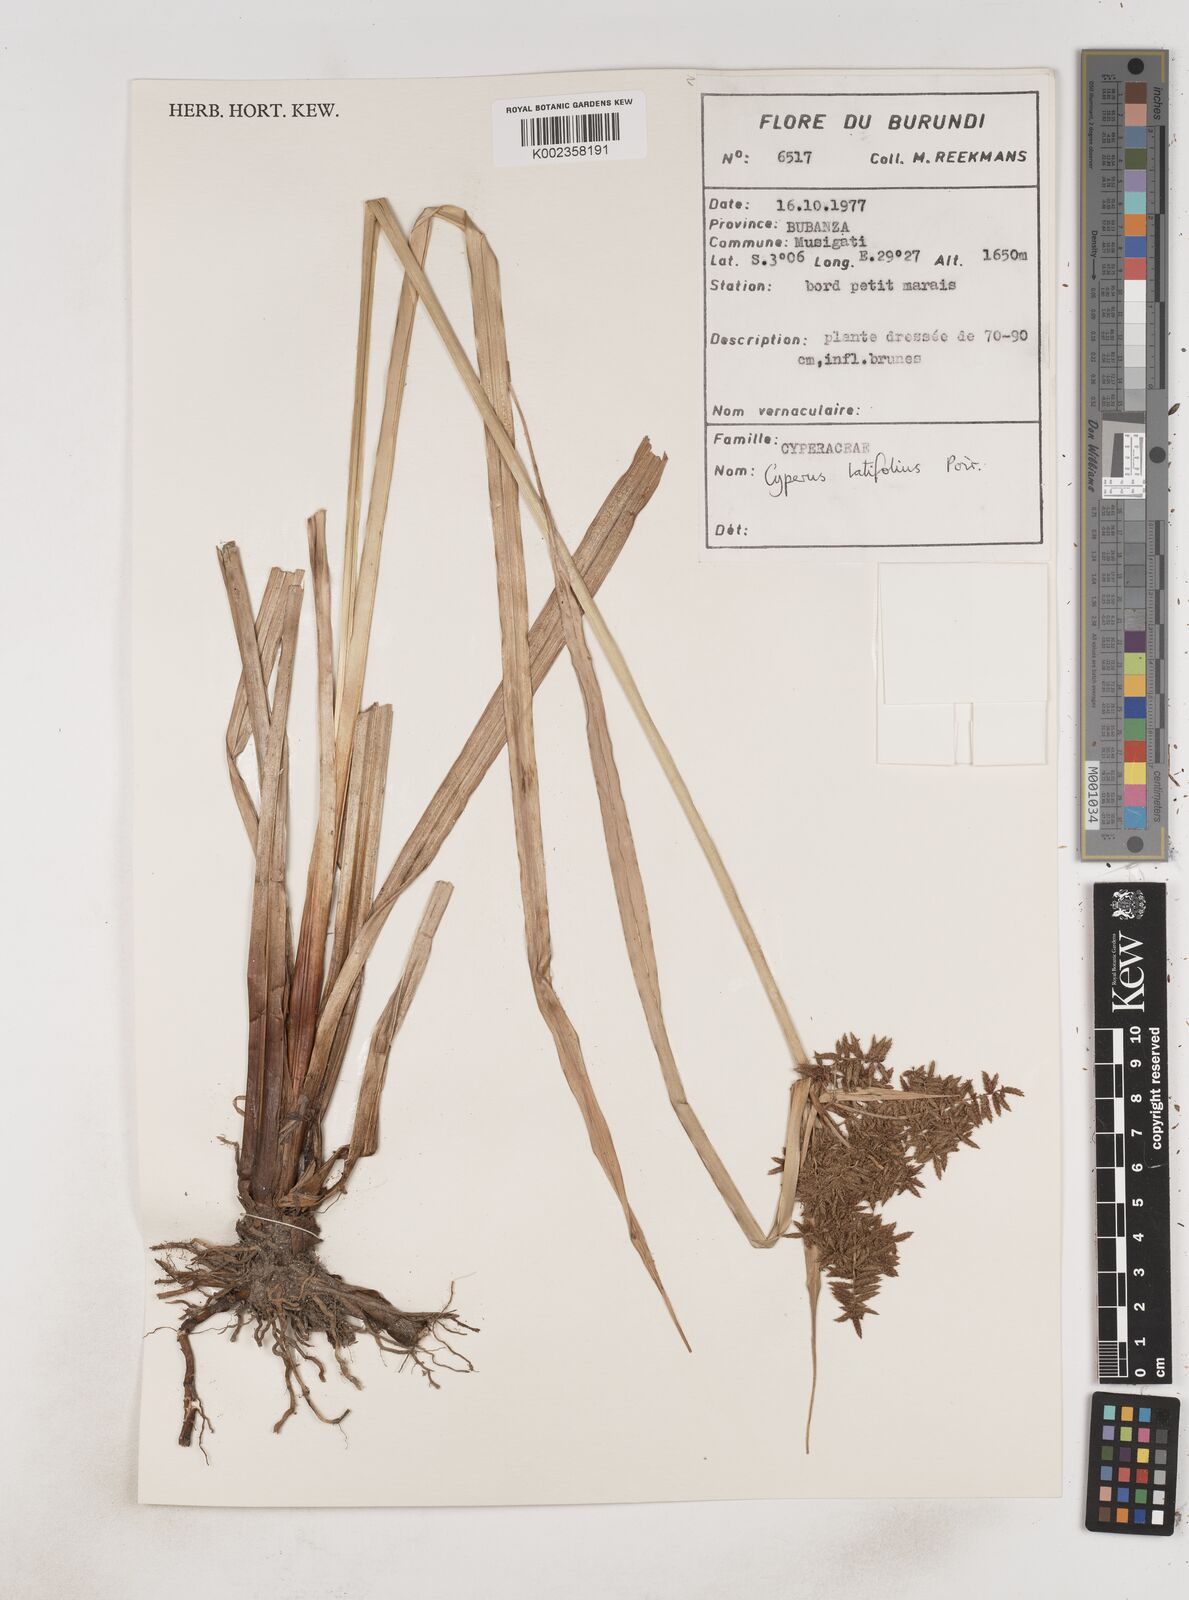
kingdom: Plantae
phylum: Tracheophyta
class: Liliopsida
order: Poales
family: Cyperaceae
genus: Cyperus
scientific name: Cyperus latifolius
